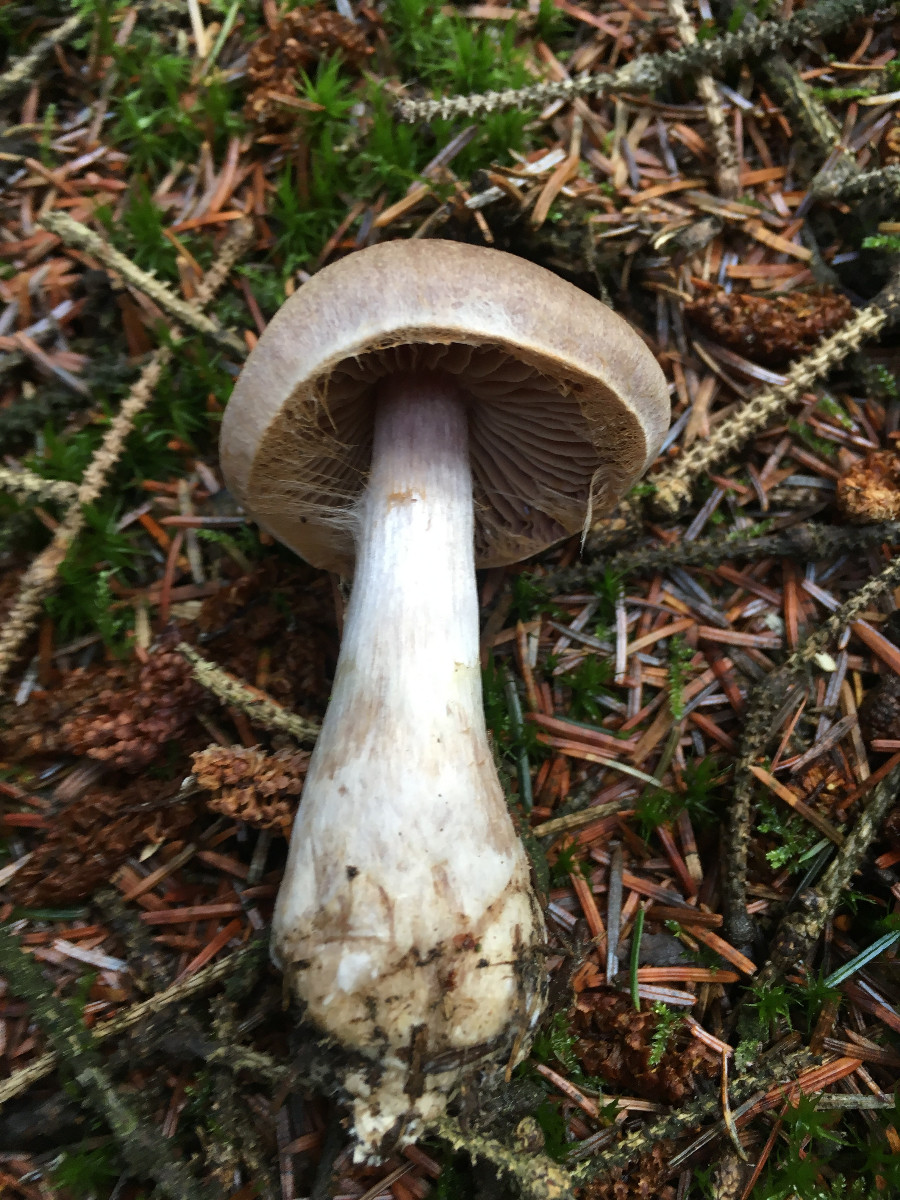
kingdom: Fungi
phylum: Basidiomycota
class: Agaricomycetes
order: Agaricales
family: Cortinariaceae
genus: Cortinarius
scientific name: Cortinarius malachius
